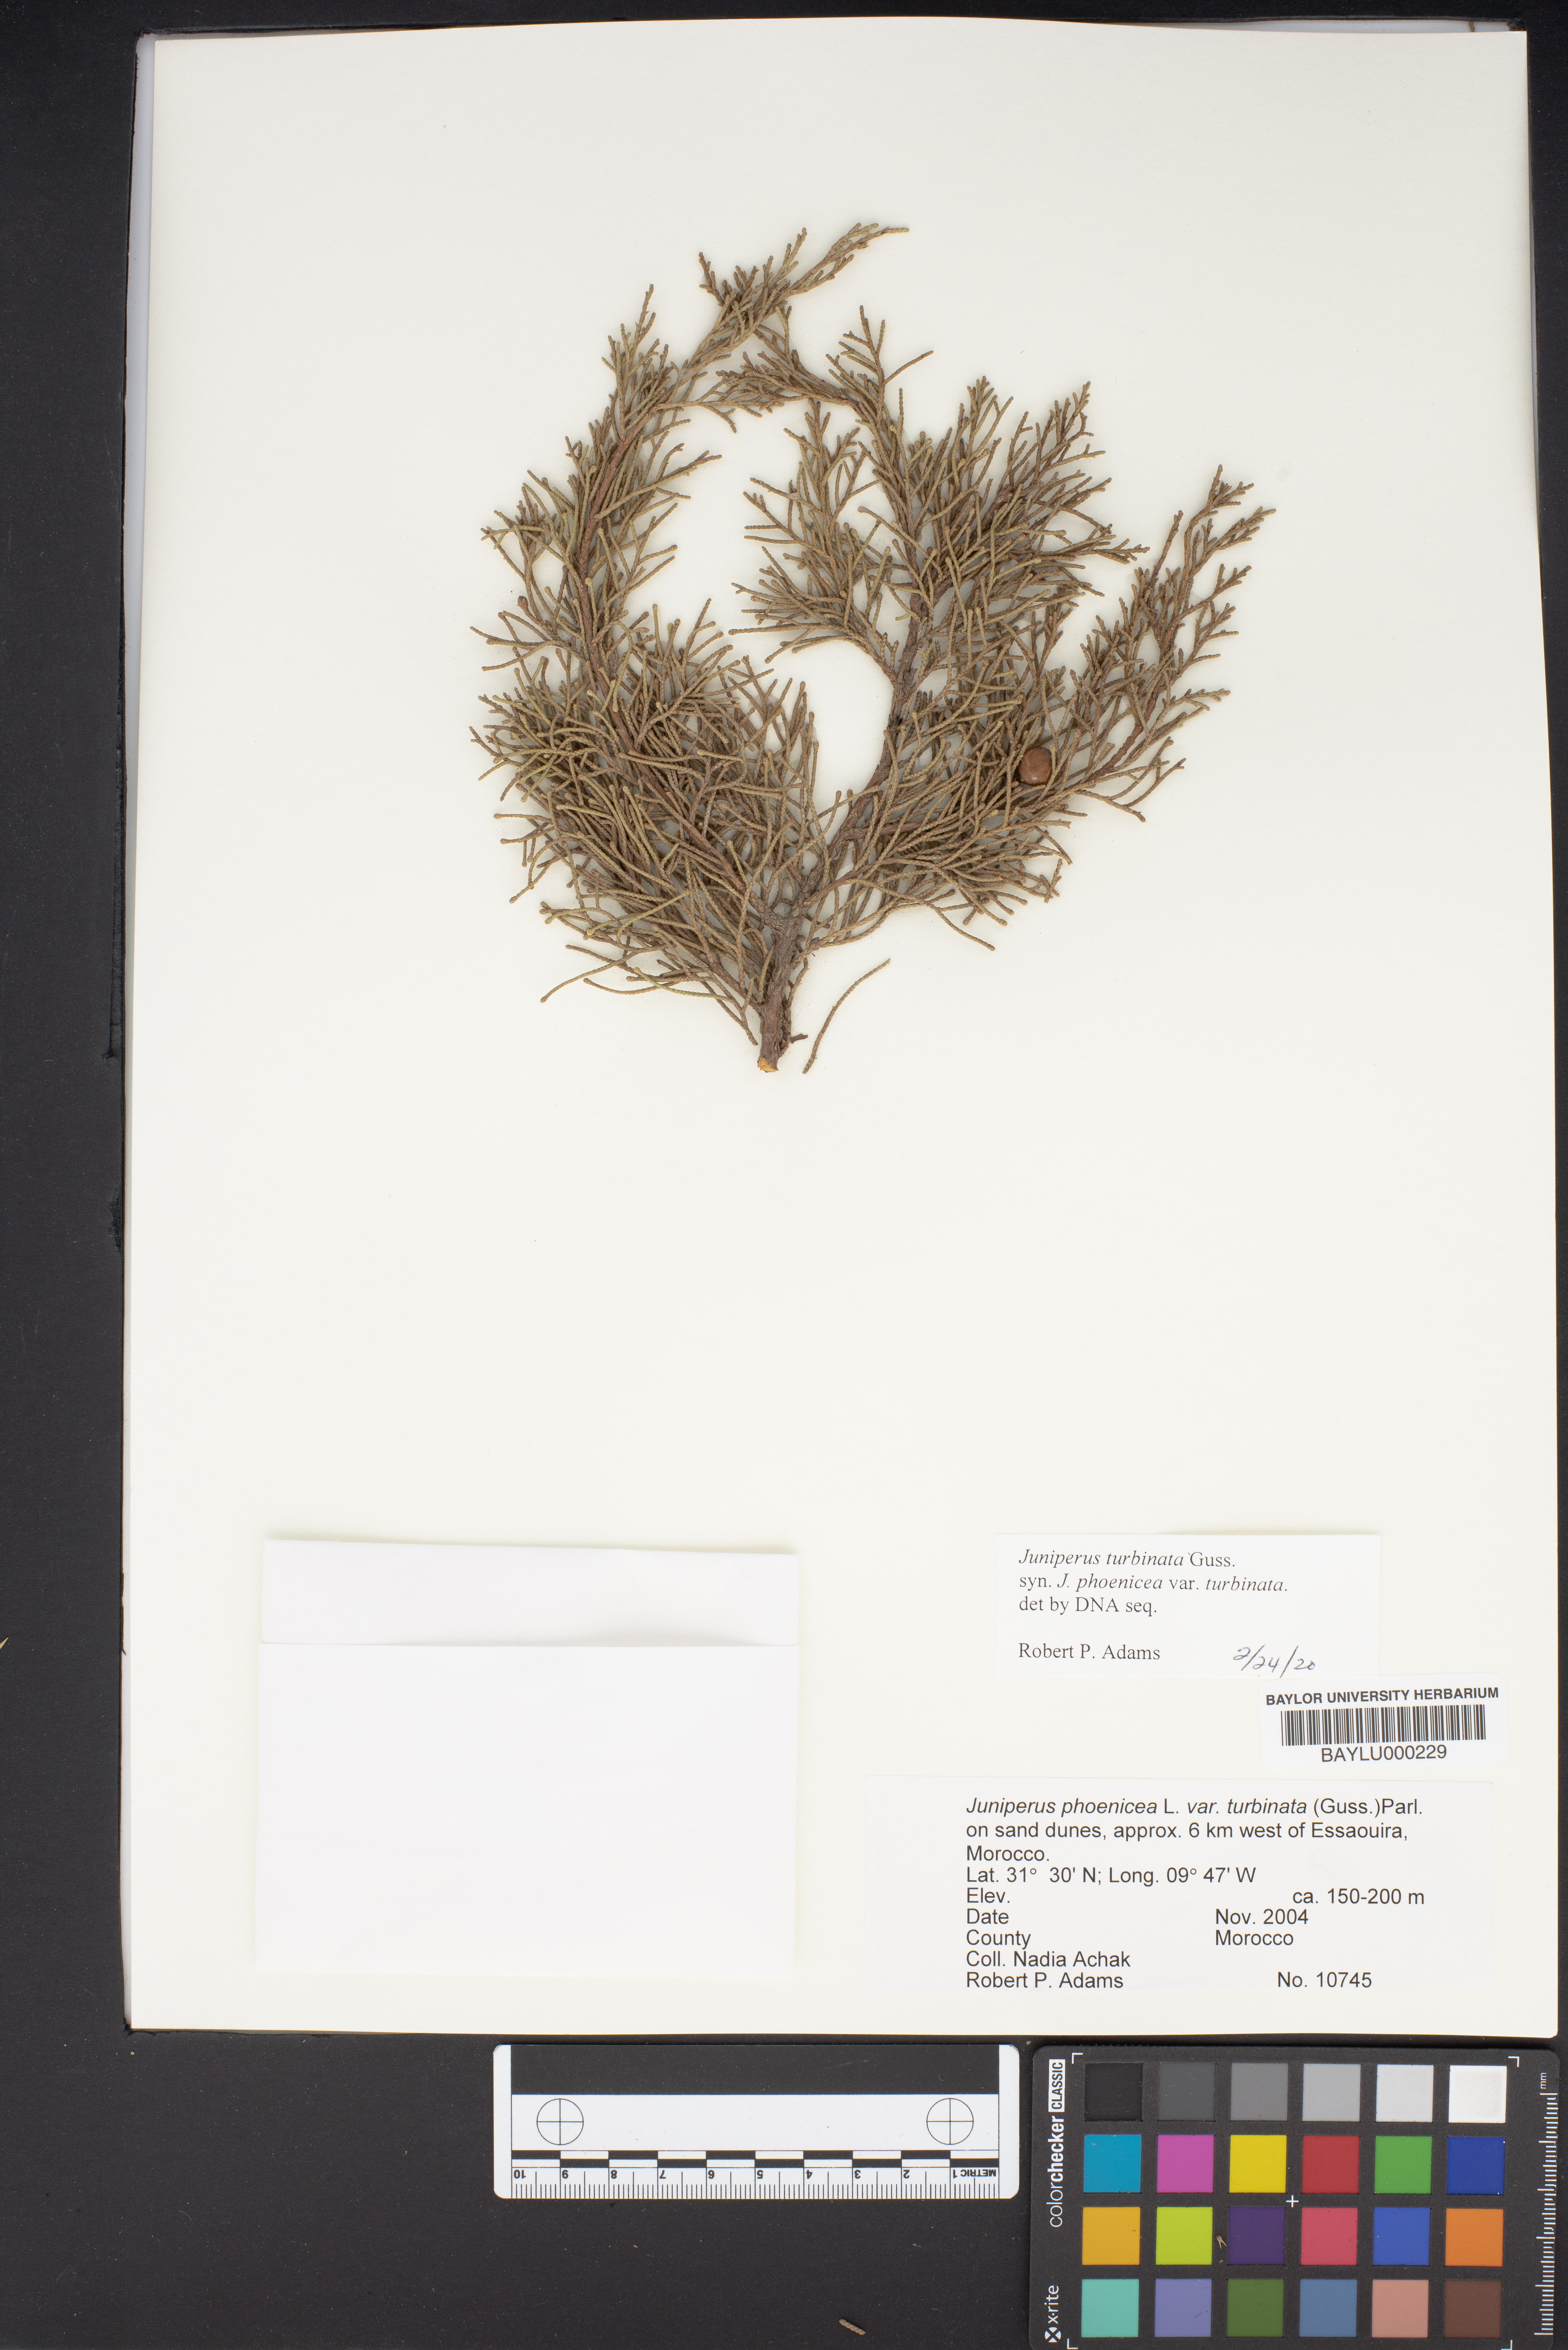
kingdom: Plantae
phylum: Tracheophyta
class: Pinopsida
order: Pinales
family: Cupressaceae
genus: Juniperus
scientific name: Juniperus phoenicea
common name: Phoenician juniper
